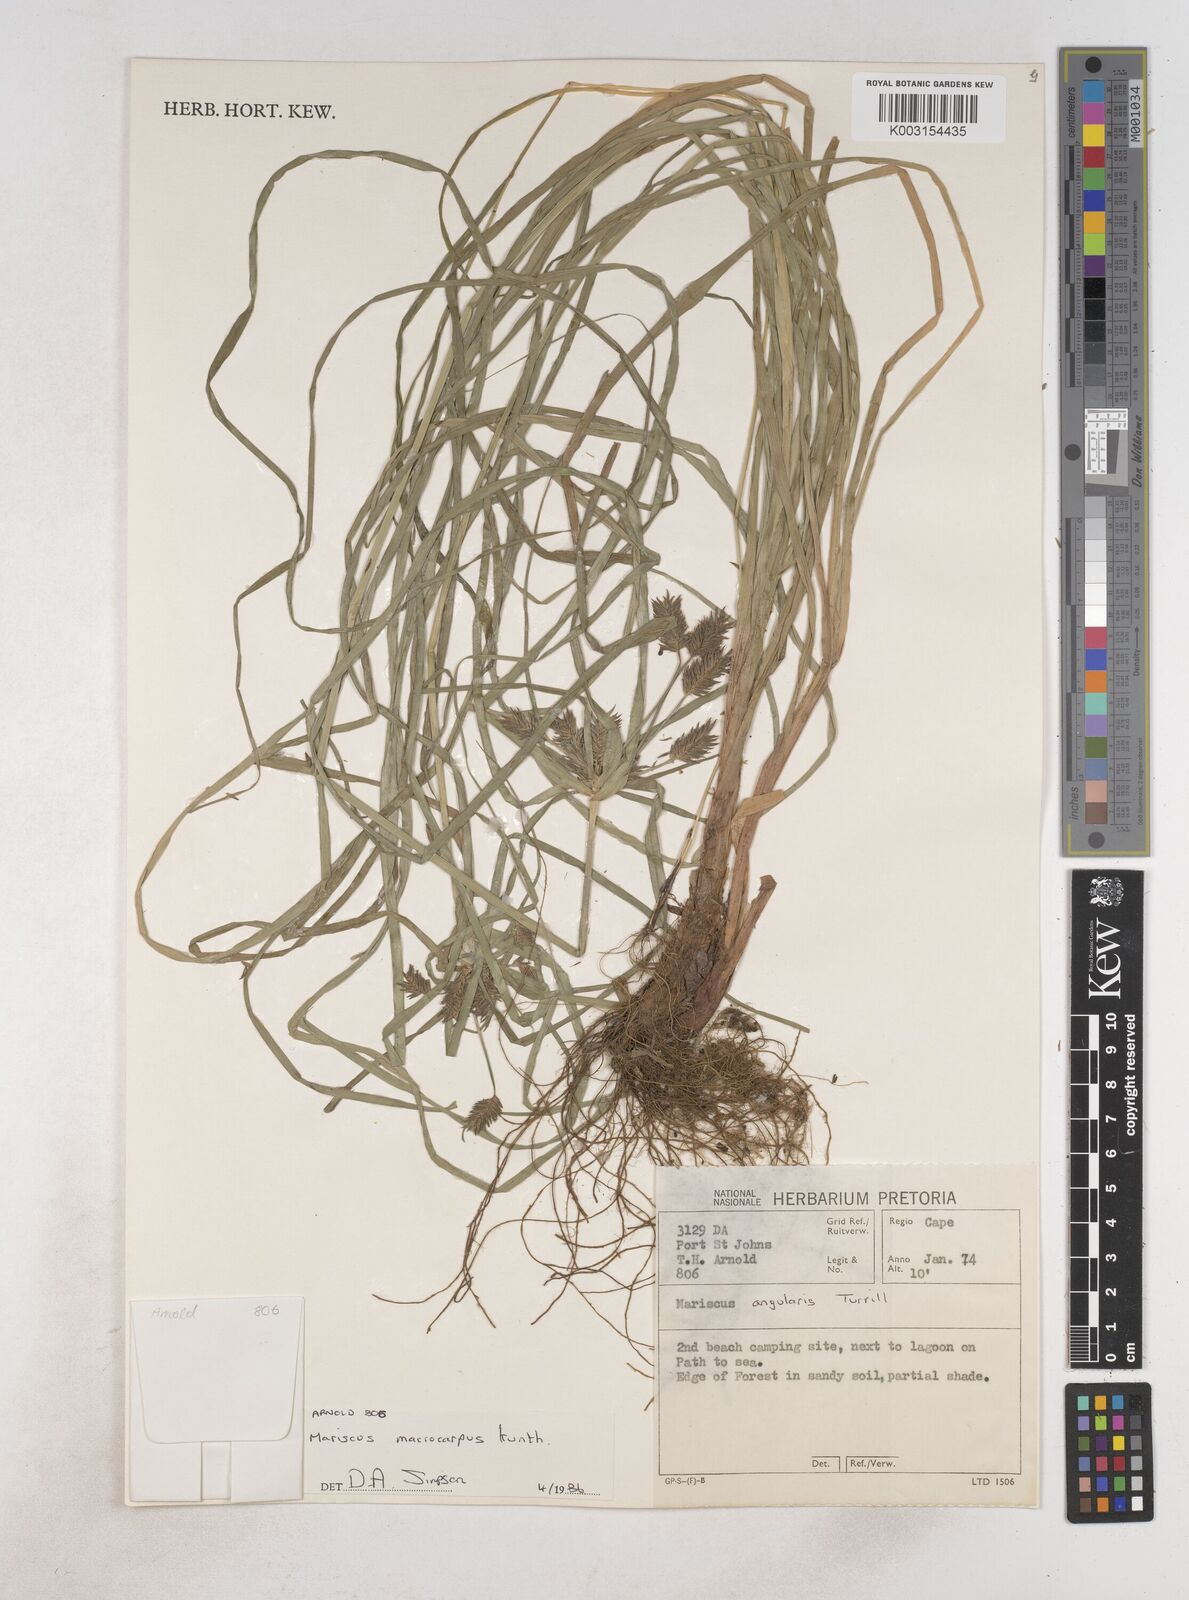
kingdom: Plantae
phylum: Tracheophyta
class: Liliopsida
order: Poales
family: Cyperaceae
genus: Cyperus
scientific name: Cyperus chersinus
